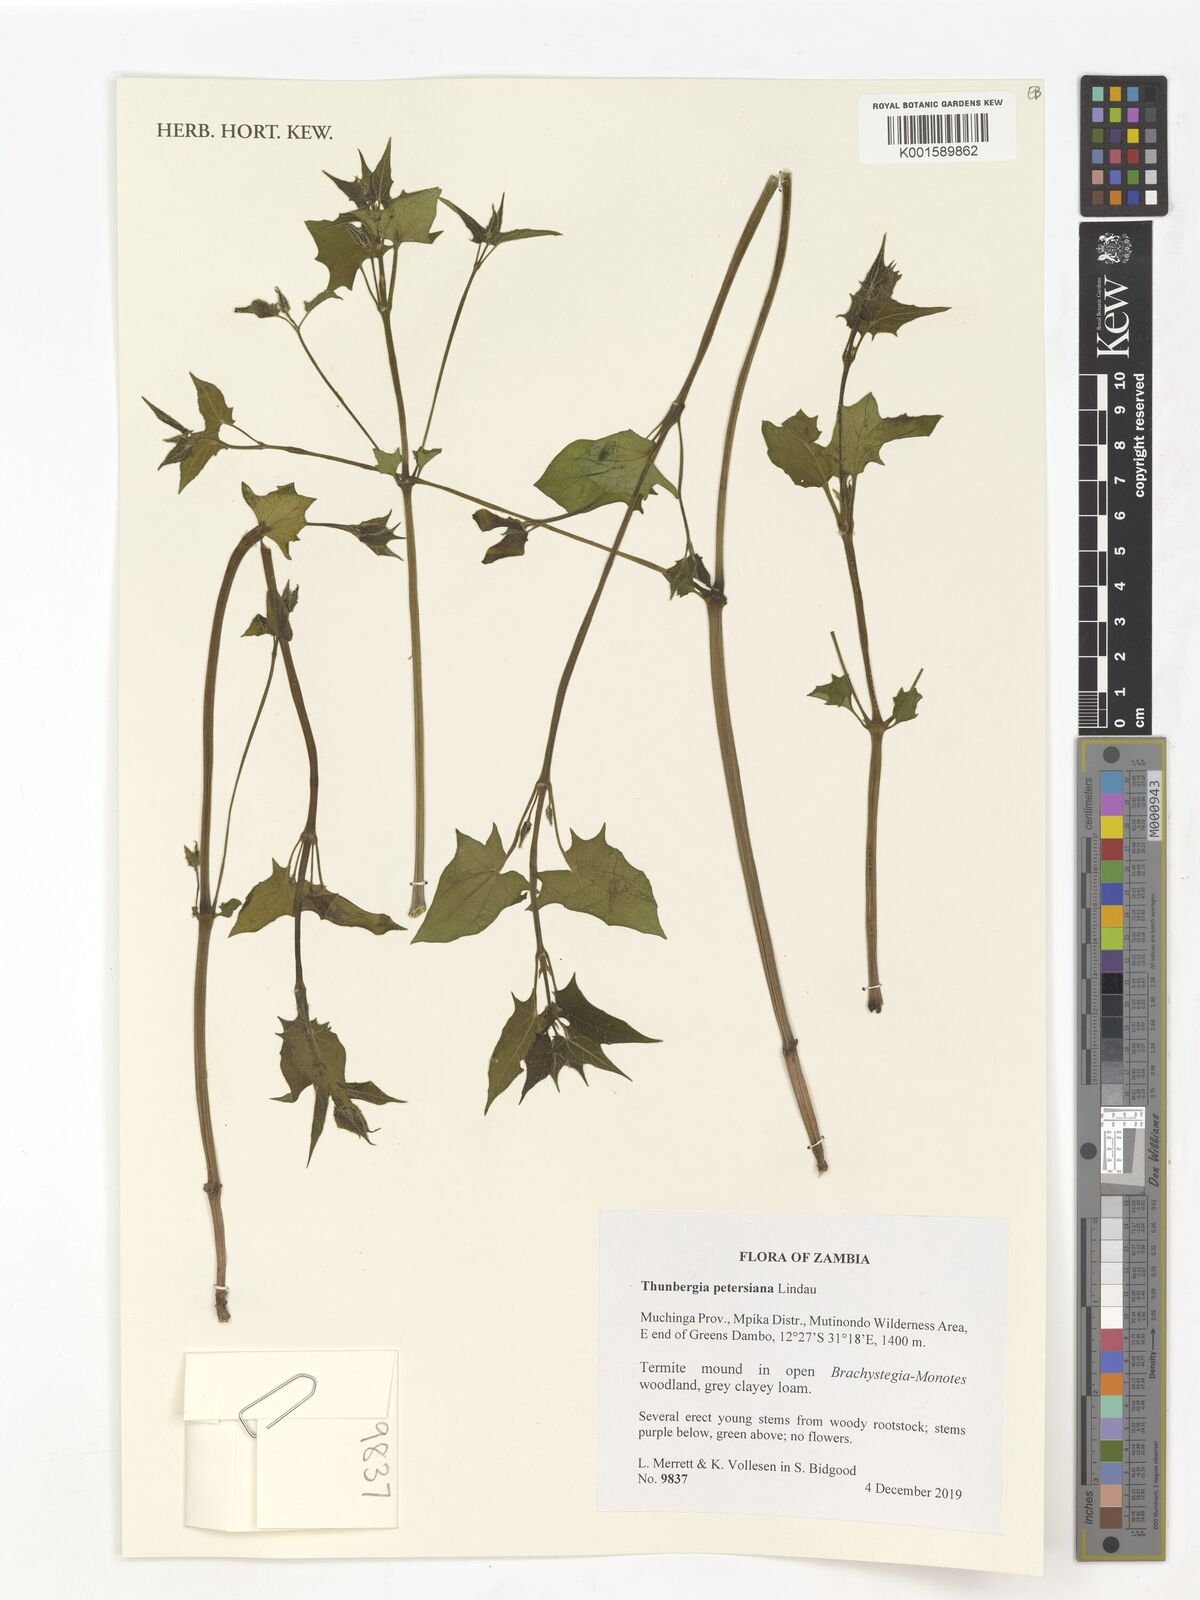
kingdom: Plantae
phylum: Tracheophyta
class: Magnoliopsida
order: Lamiales
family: Acanthaceae
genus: Thunbergia
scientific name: Thunbergia petersiana
